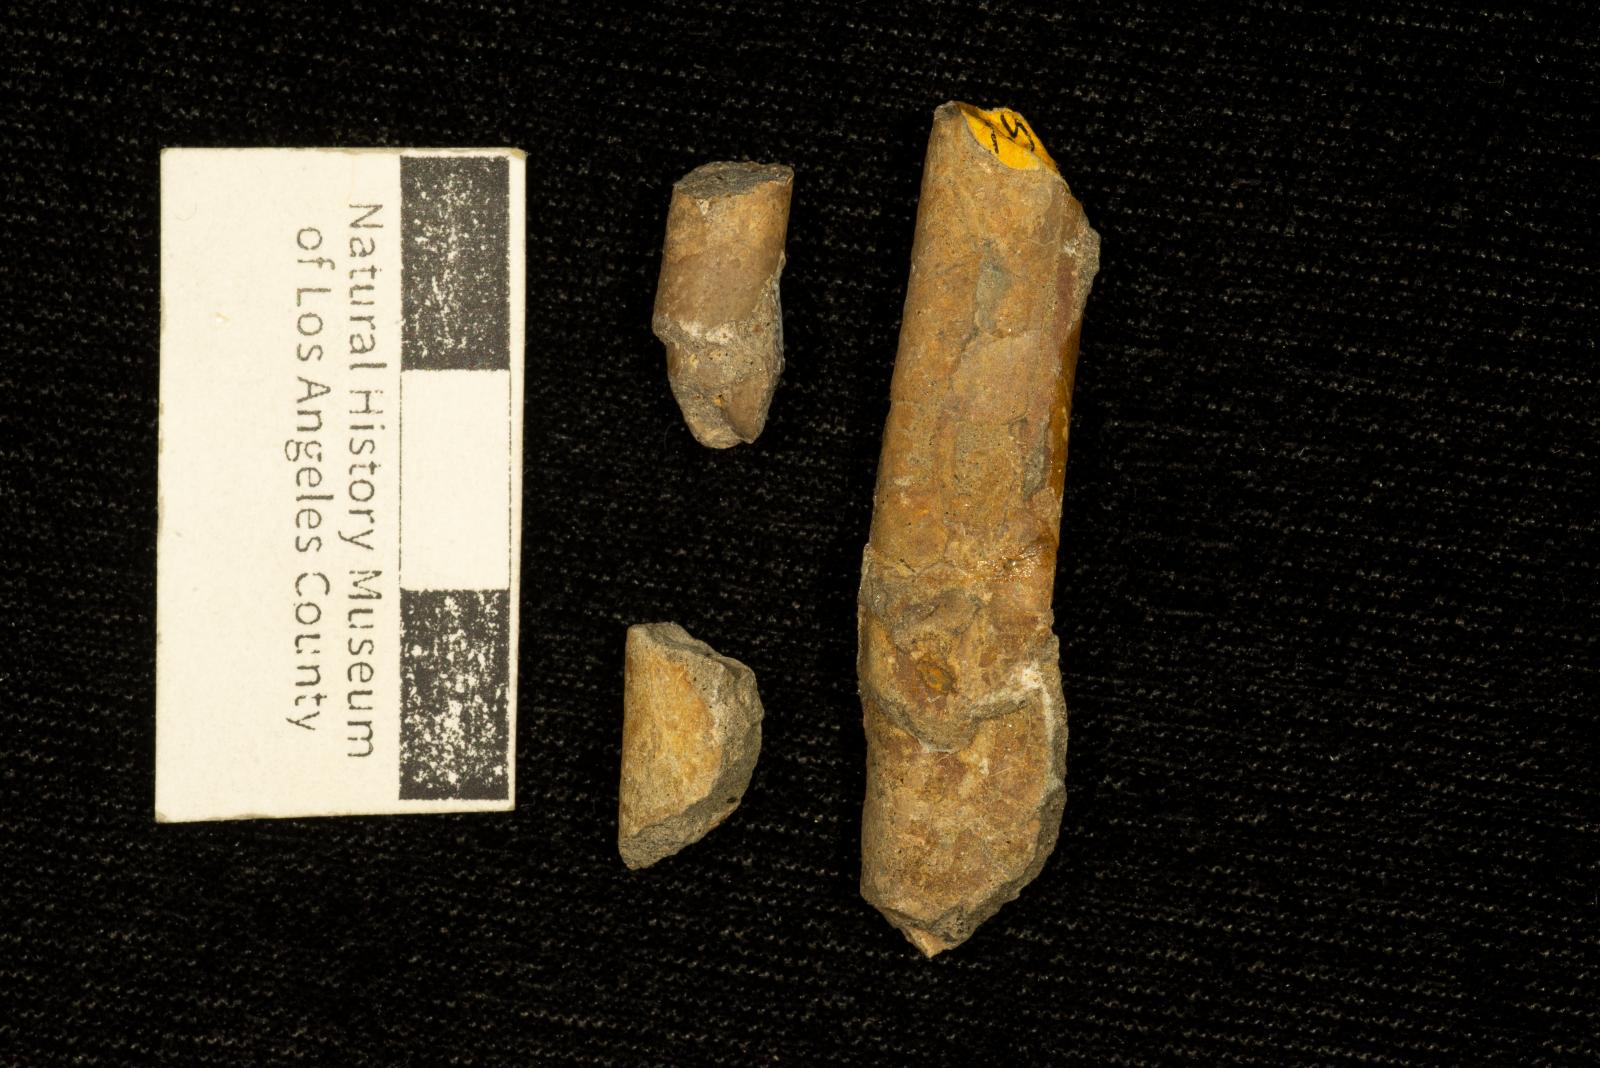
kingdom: Animalia
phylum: Mollusca
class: Cephalopoda
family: Baculitidae
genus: Sciponoceras
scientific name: Sciponoceras
